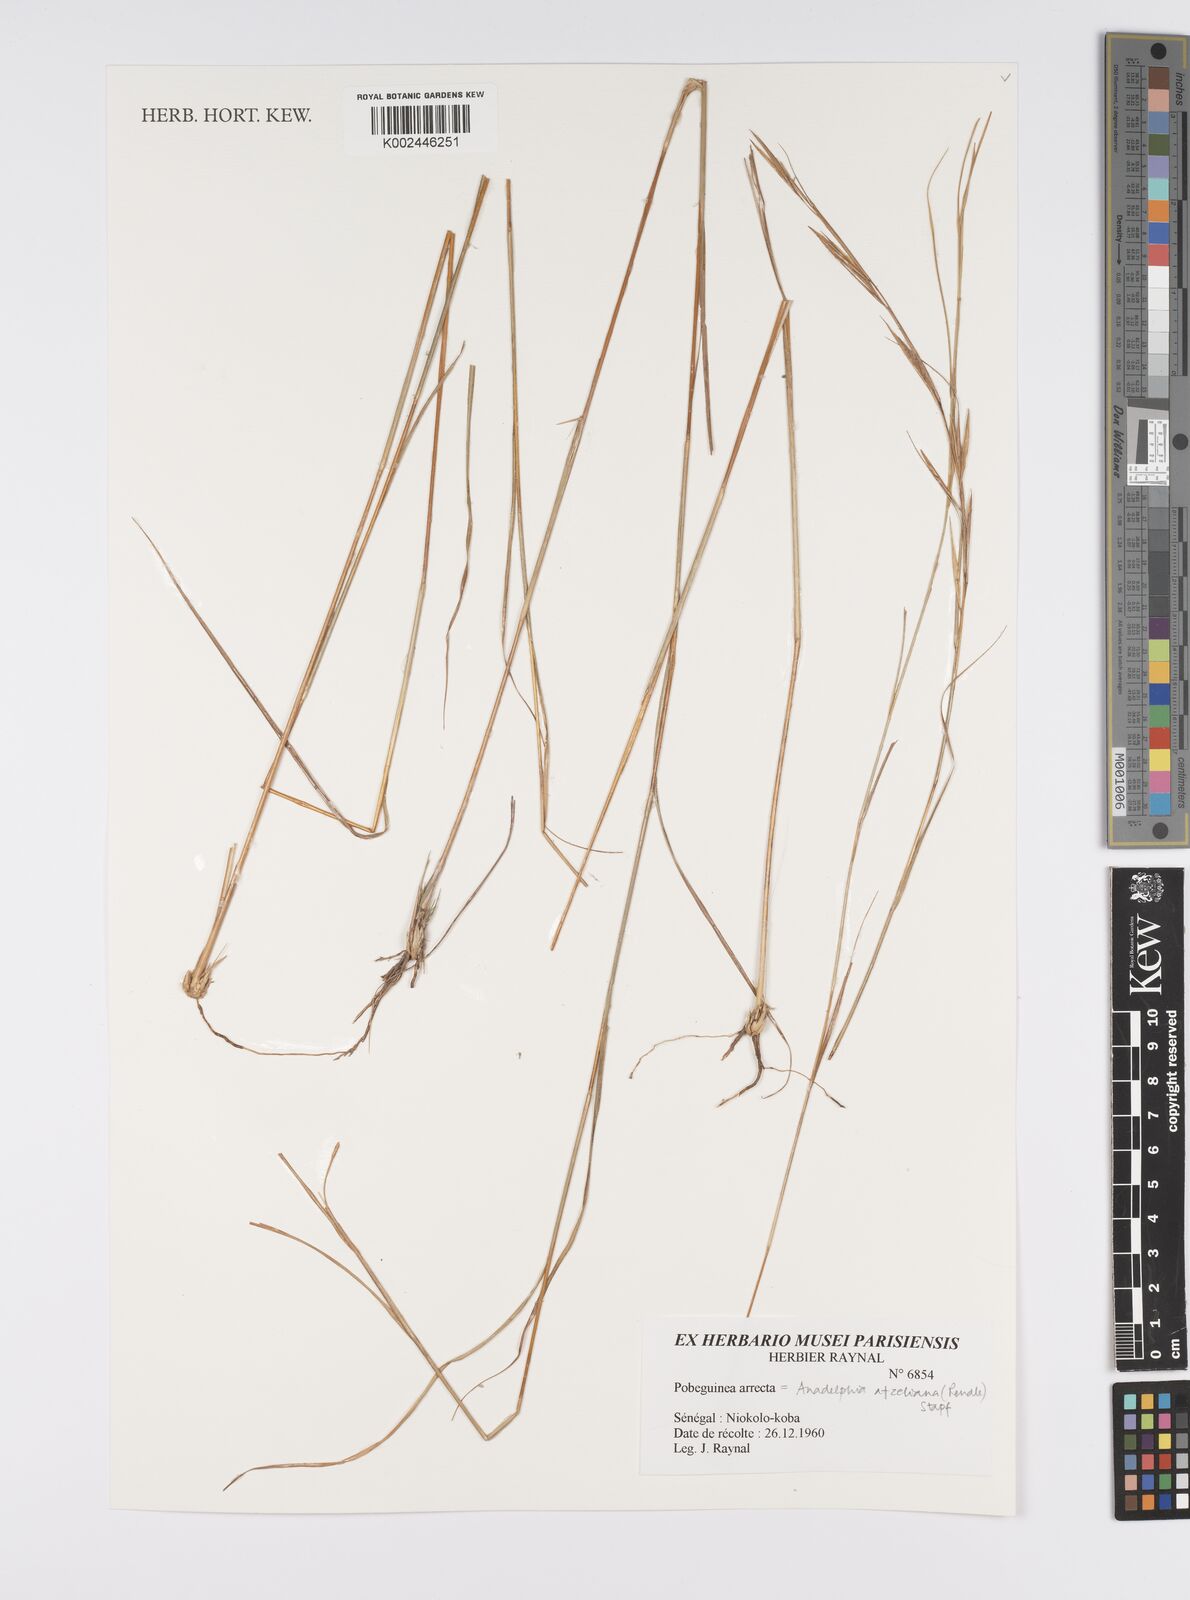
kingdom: Plantae
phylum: Tracheophyta
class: Liliopsida
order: Poales
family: Poaceae
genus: Anadelphia
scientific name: Anadelphia afzeliana
